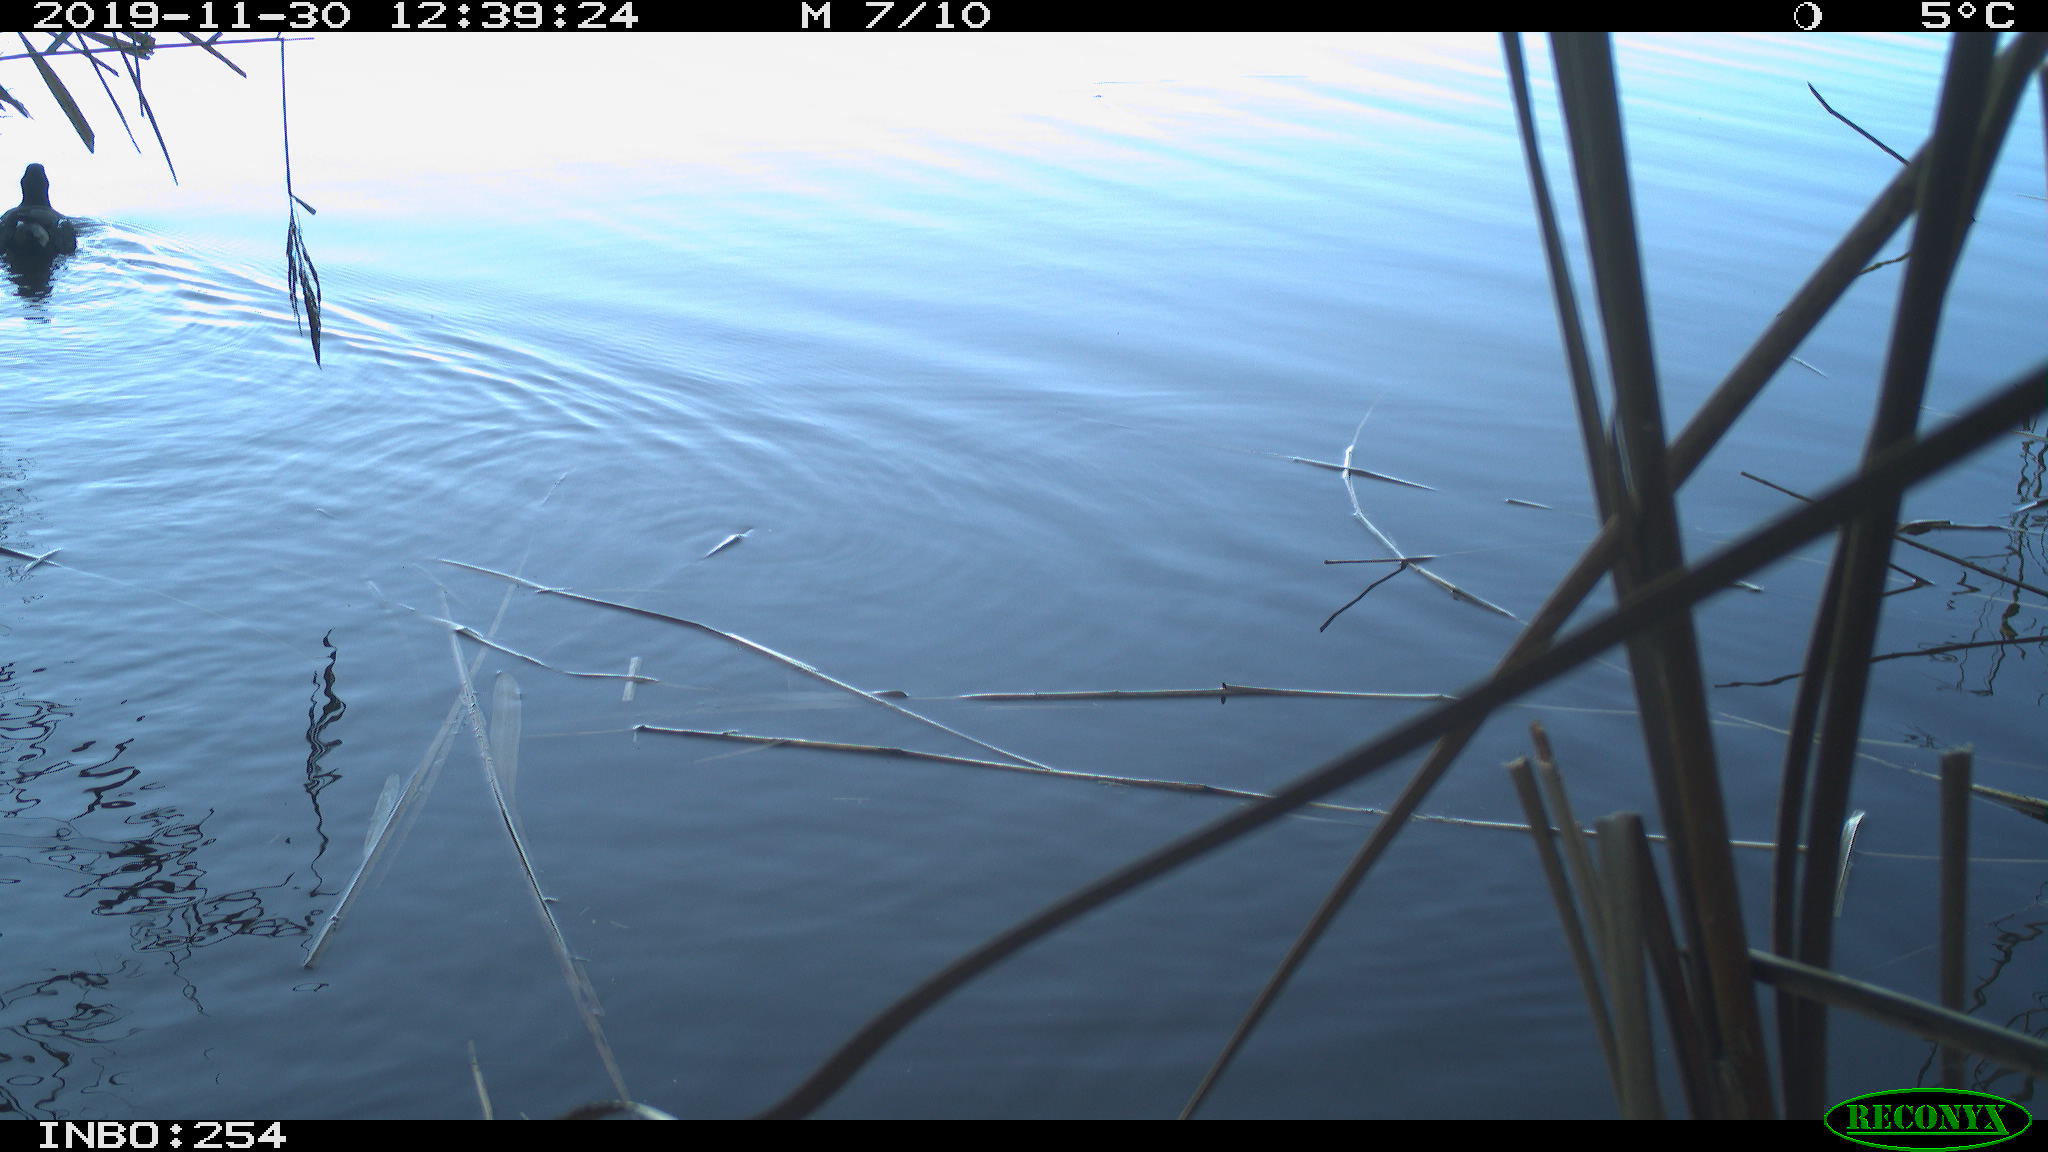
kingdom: Animalia
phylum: Chordata
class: Aves
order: Gruiformes
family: Rallidae
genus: Gallinula
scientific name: Gallinula chloropus
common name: Common moorhen
